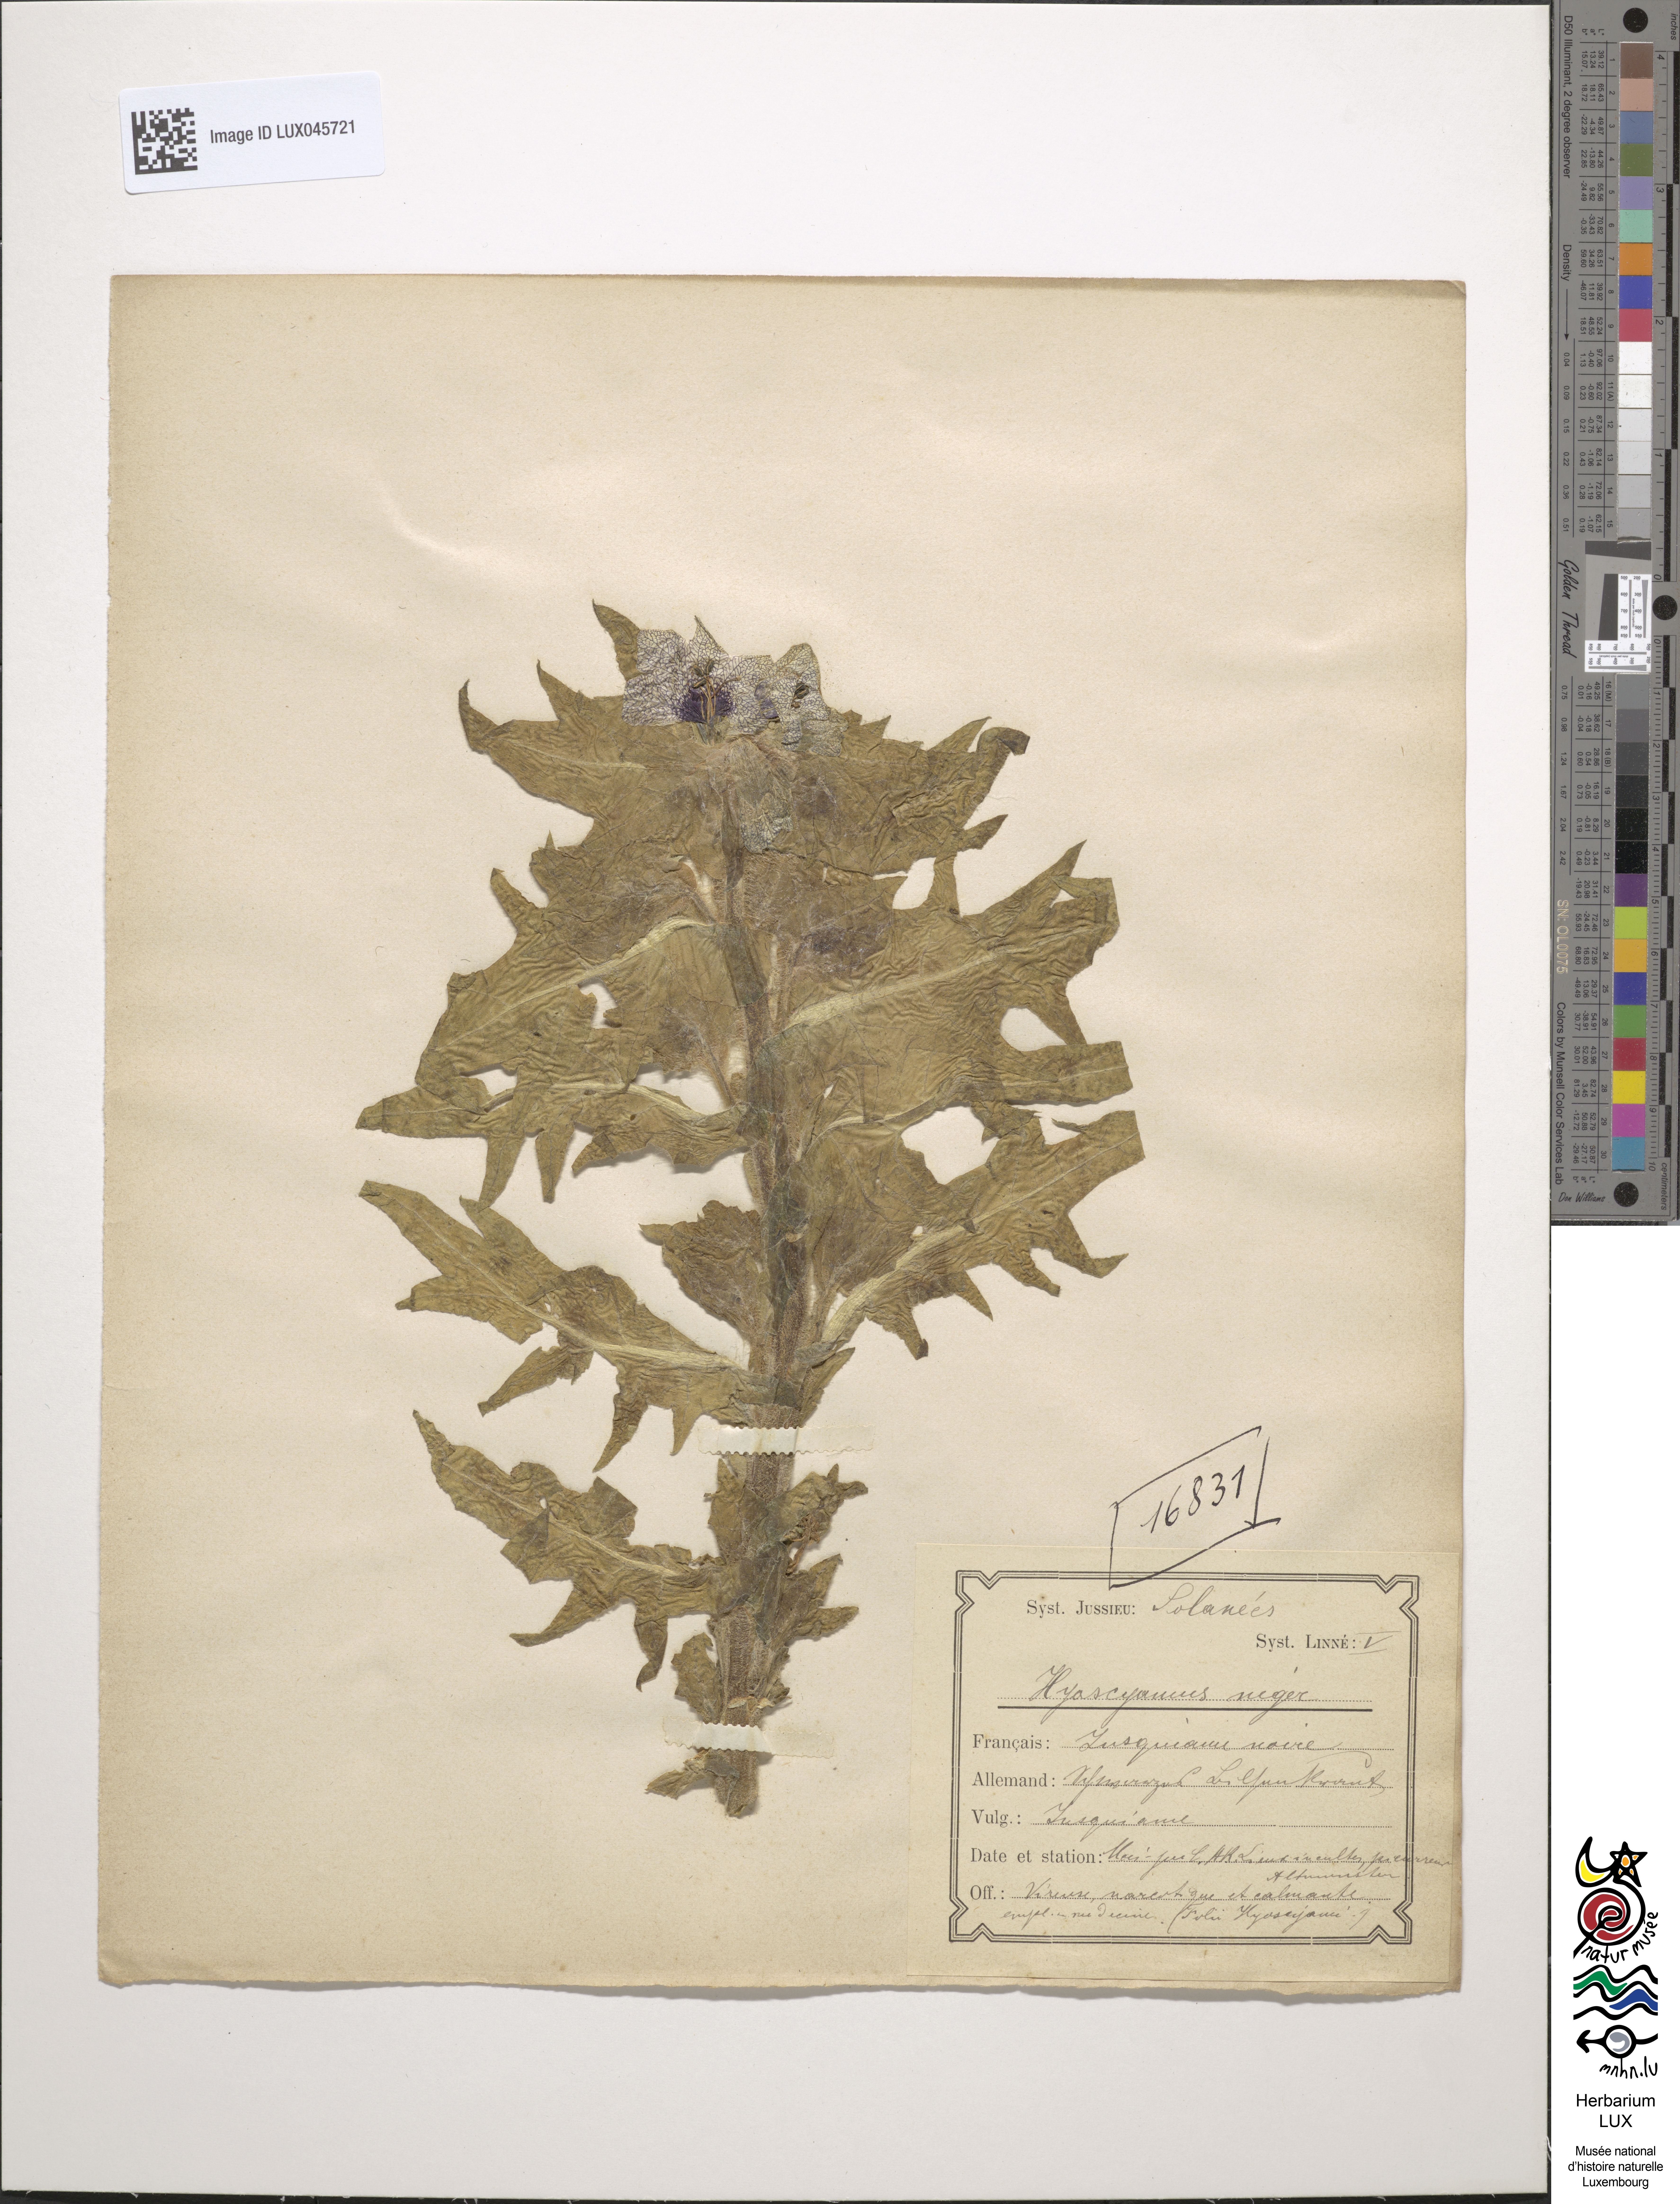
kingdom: Plantae
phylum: Tracheophyta
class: Magnoliopsida
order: Solanales
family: Solanaceae
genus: Hyoscyamus
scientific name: Hyoscyamus niger
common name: Henbane
